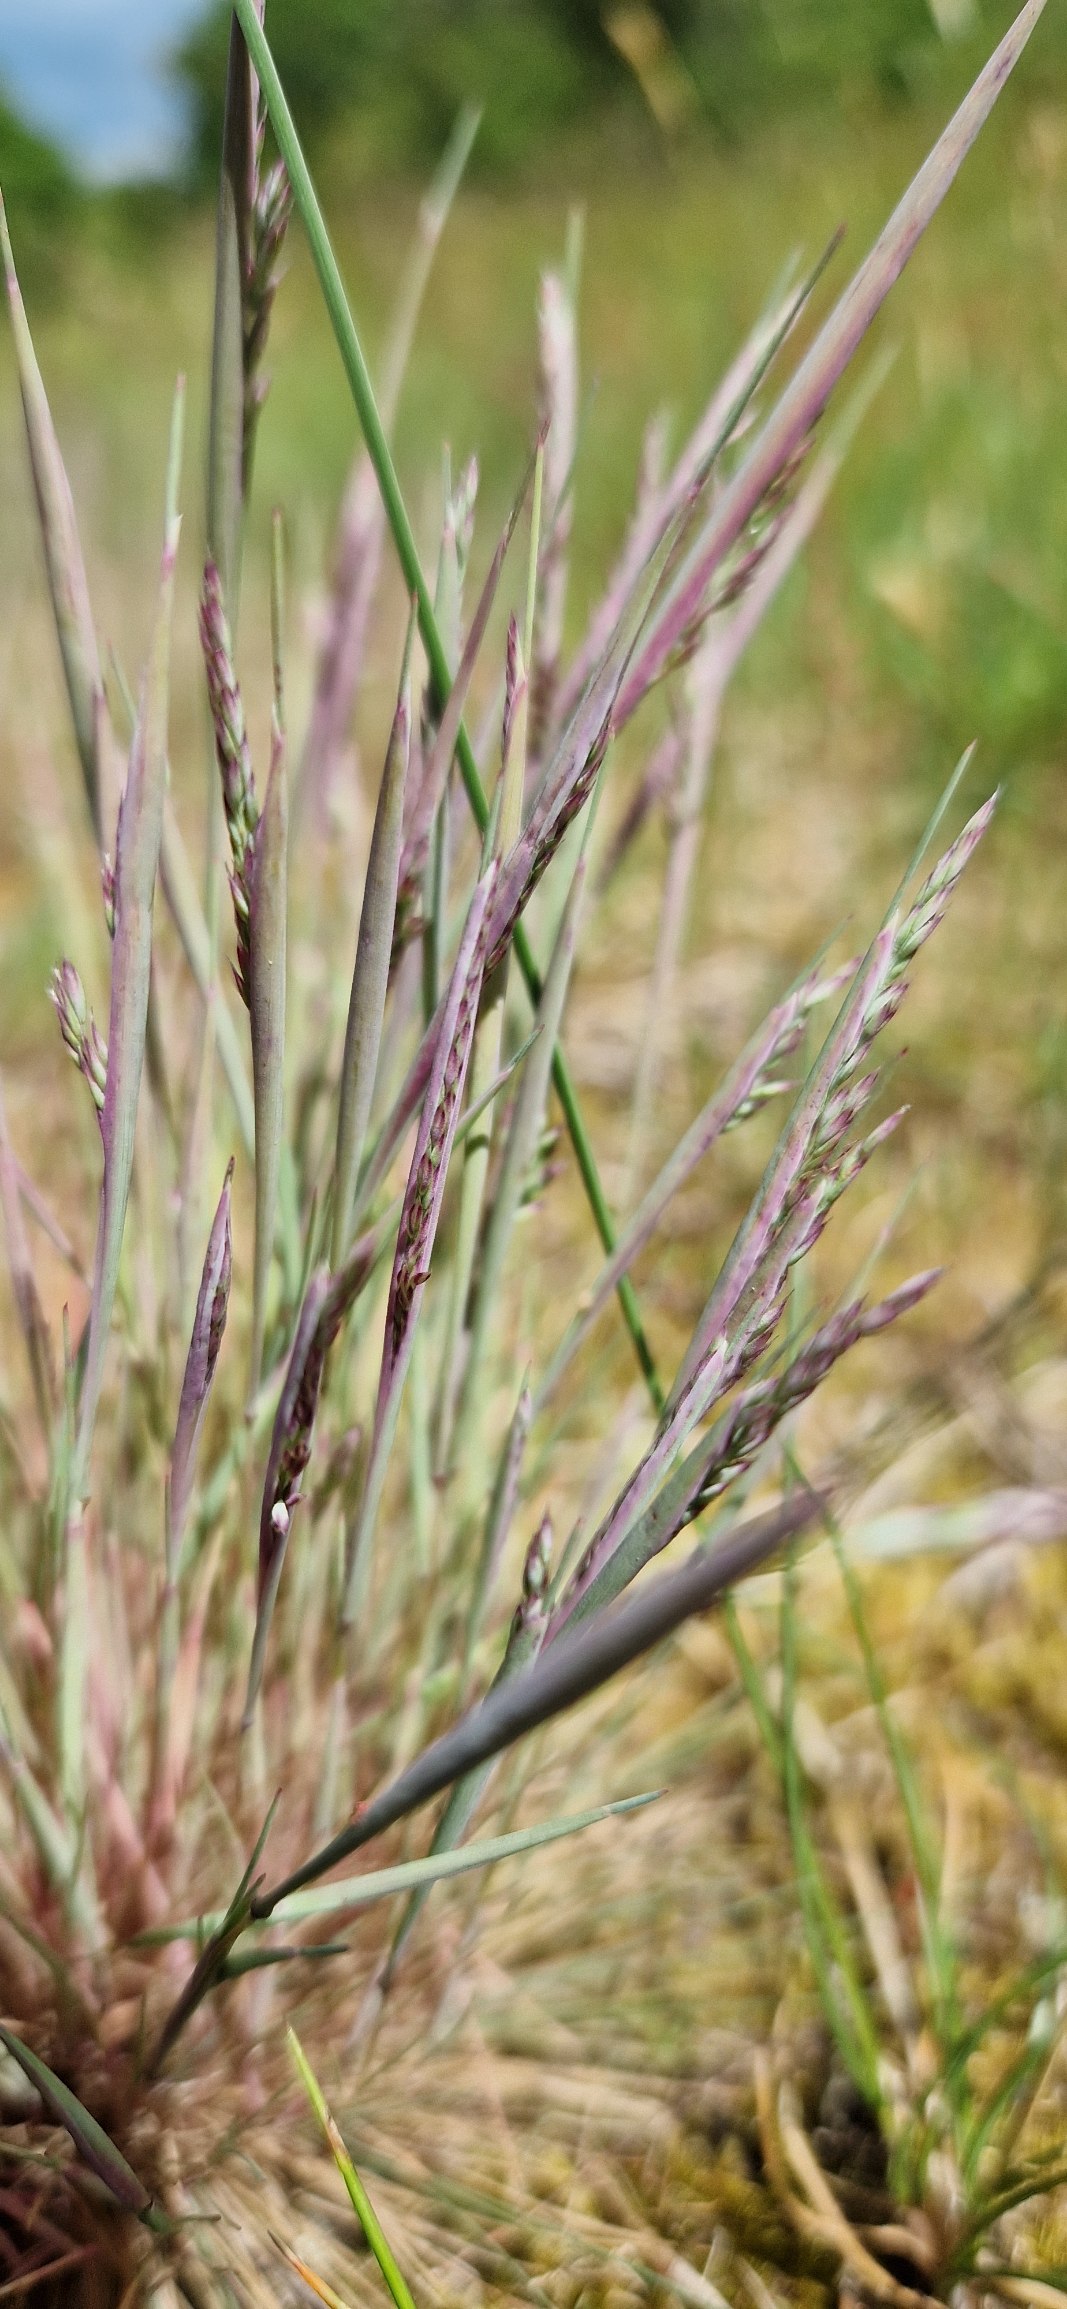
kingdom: Plantae
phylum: Tracheophyta
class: Liliopsida
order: Poales
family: Poaceae
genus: Corynephorus
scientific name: Corynephorus canescens
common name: Sandskæg
